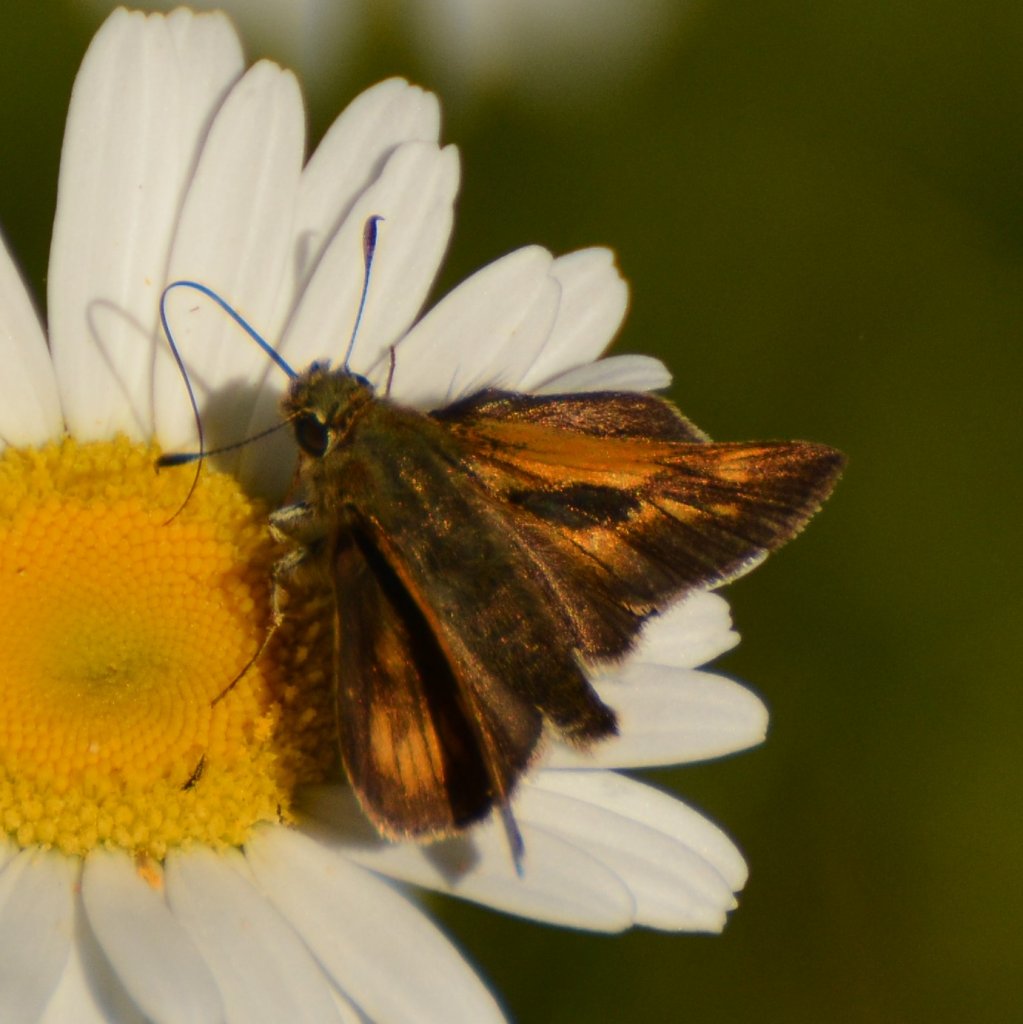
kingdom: Animalia
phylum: Arthropoda
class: Insecta
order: Lepidoptera
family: Hesperiidae
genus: Polites
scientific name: Polites
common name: Long Dash Skipper
